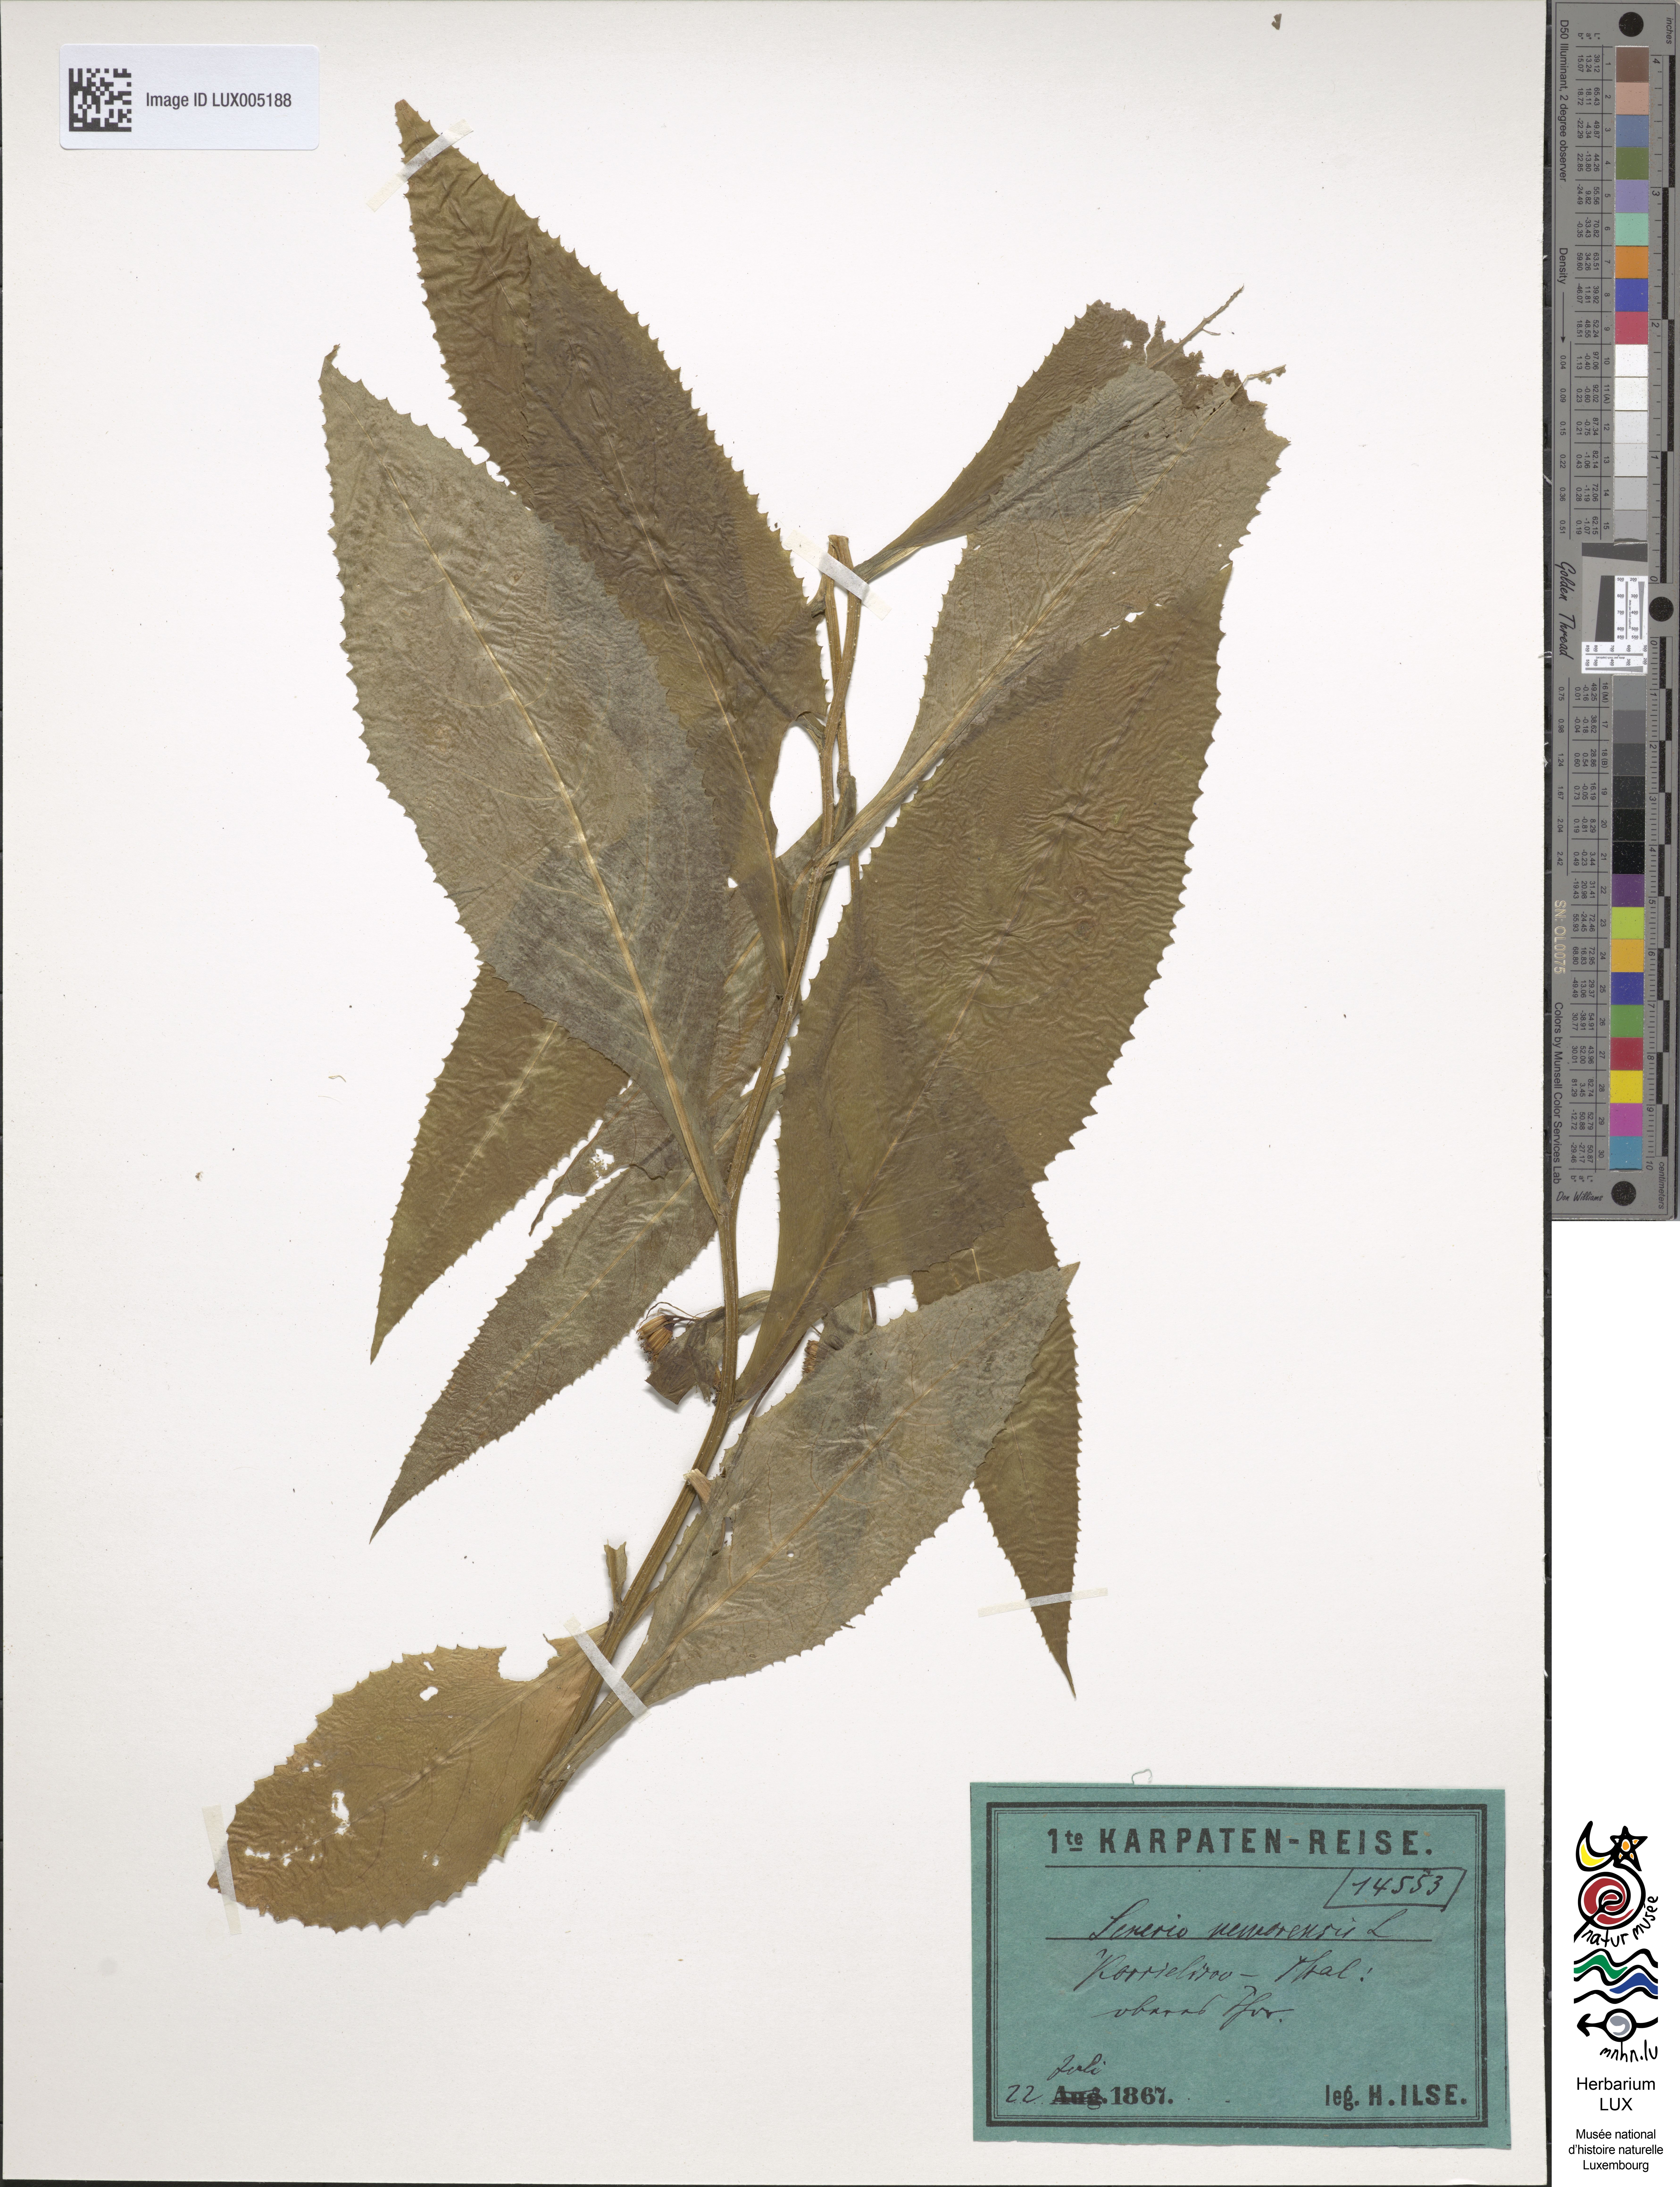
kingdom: Plantae
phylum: Tracheophyta
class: Magnoliopsida
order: Asterales
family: Asteraceae
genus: Senecio
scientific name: Senecio nemorensis
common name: Alpine ragwort
